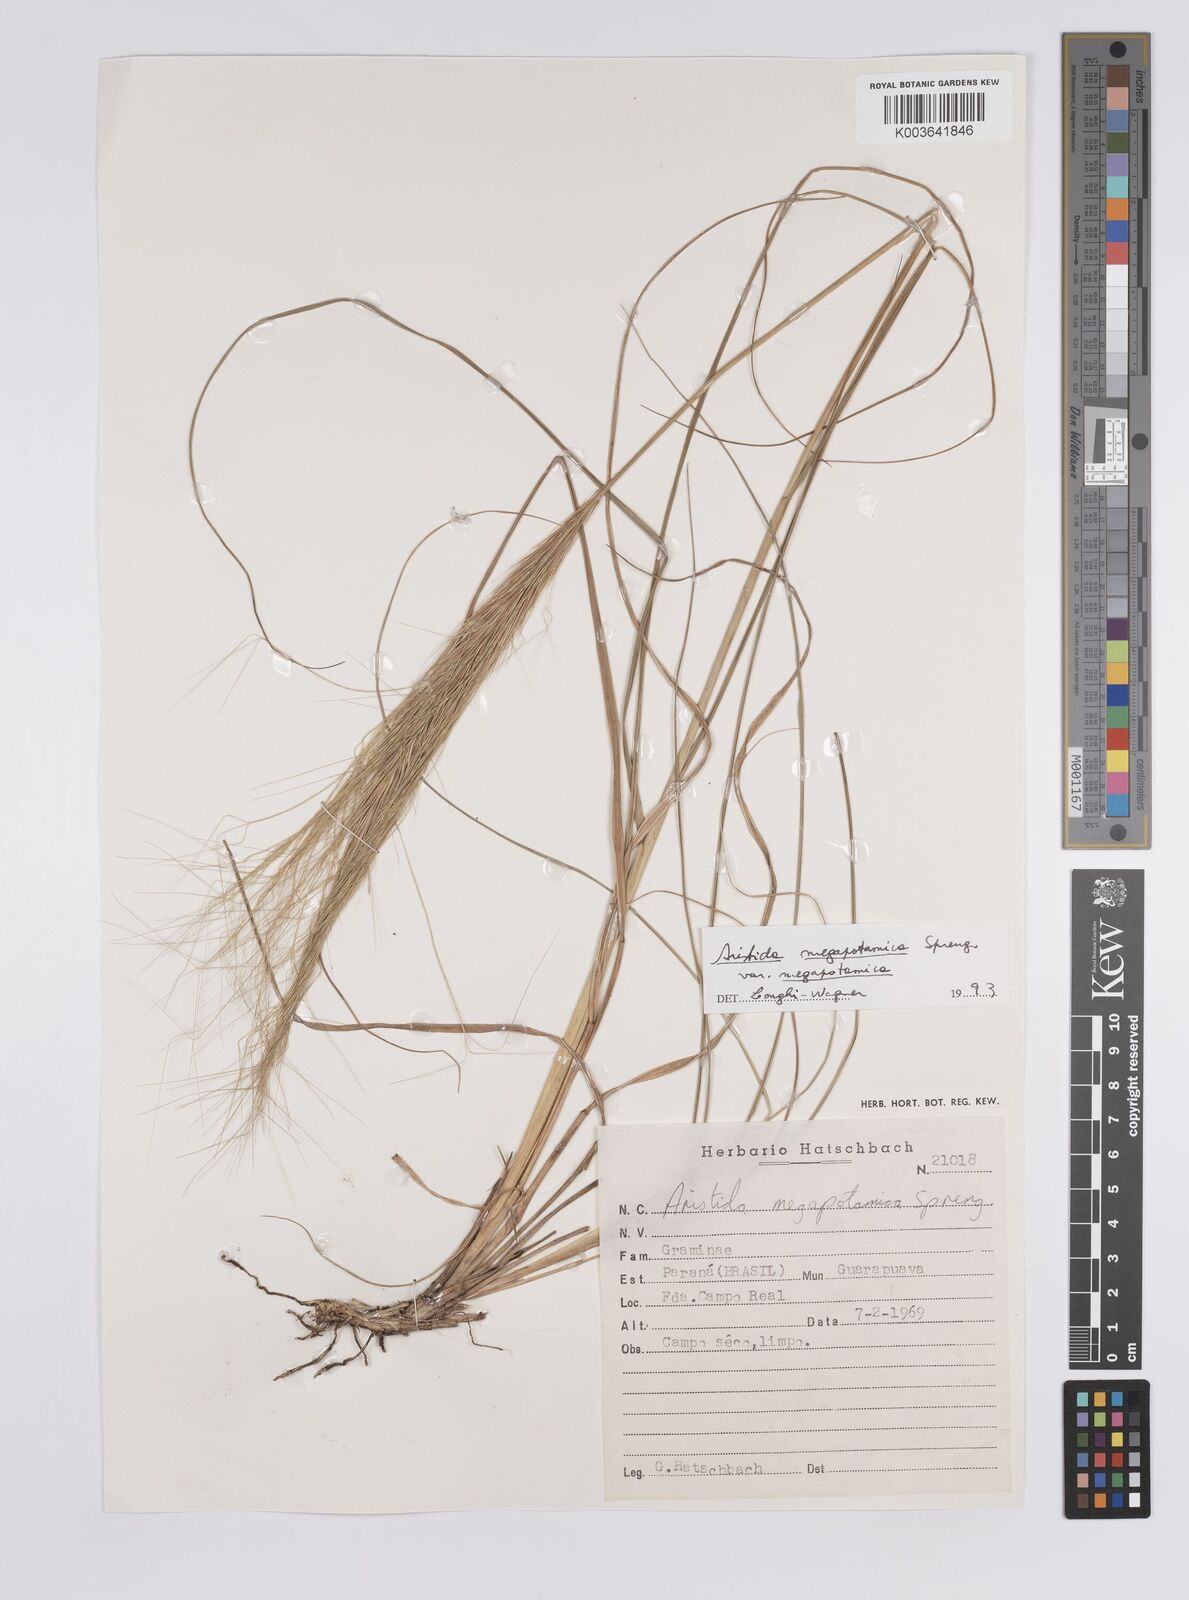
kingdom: Plantae
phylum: Tracheophyta
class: Liliopsida
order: Poales
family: Poaceae
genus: Aristida
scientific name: Aristida megapotamica
